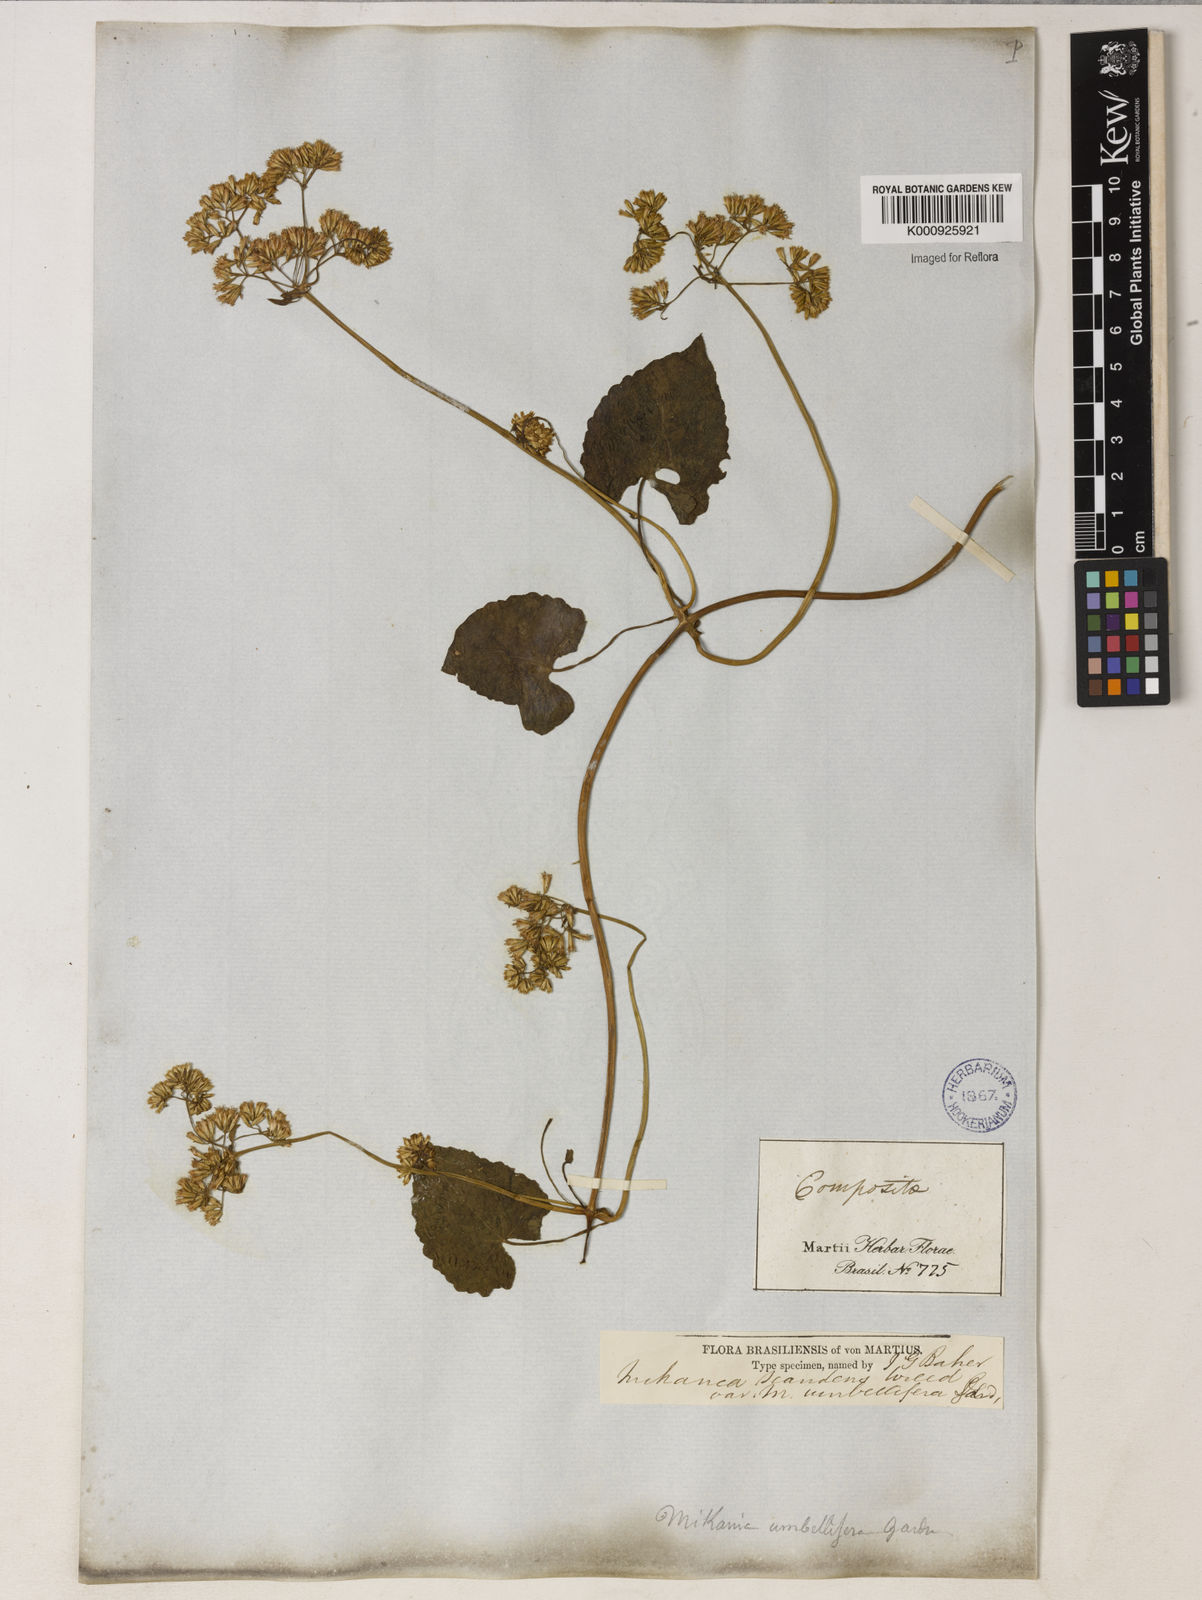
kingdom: Plantae
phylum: Tracheophyta
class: Magnoliopsida
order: Asterales
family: Asteraceae
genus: Mikania
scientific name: Mikania micrantha
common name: Mile-a-minute
